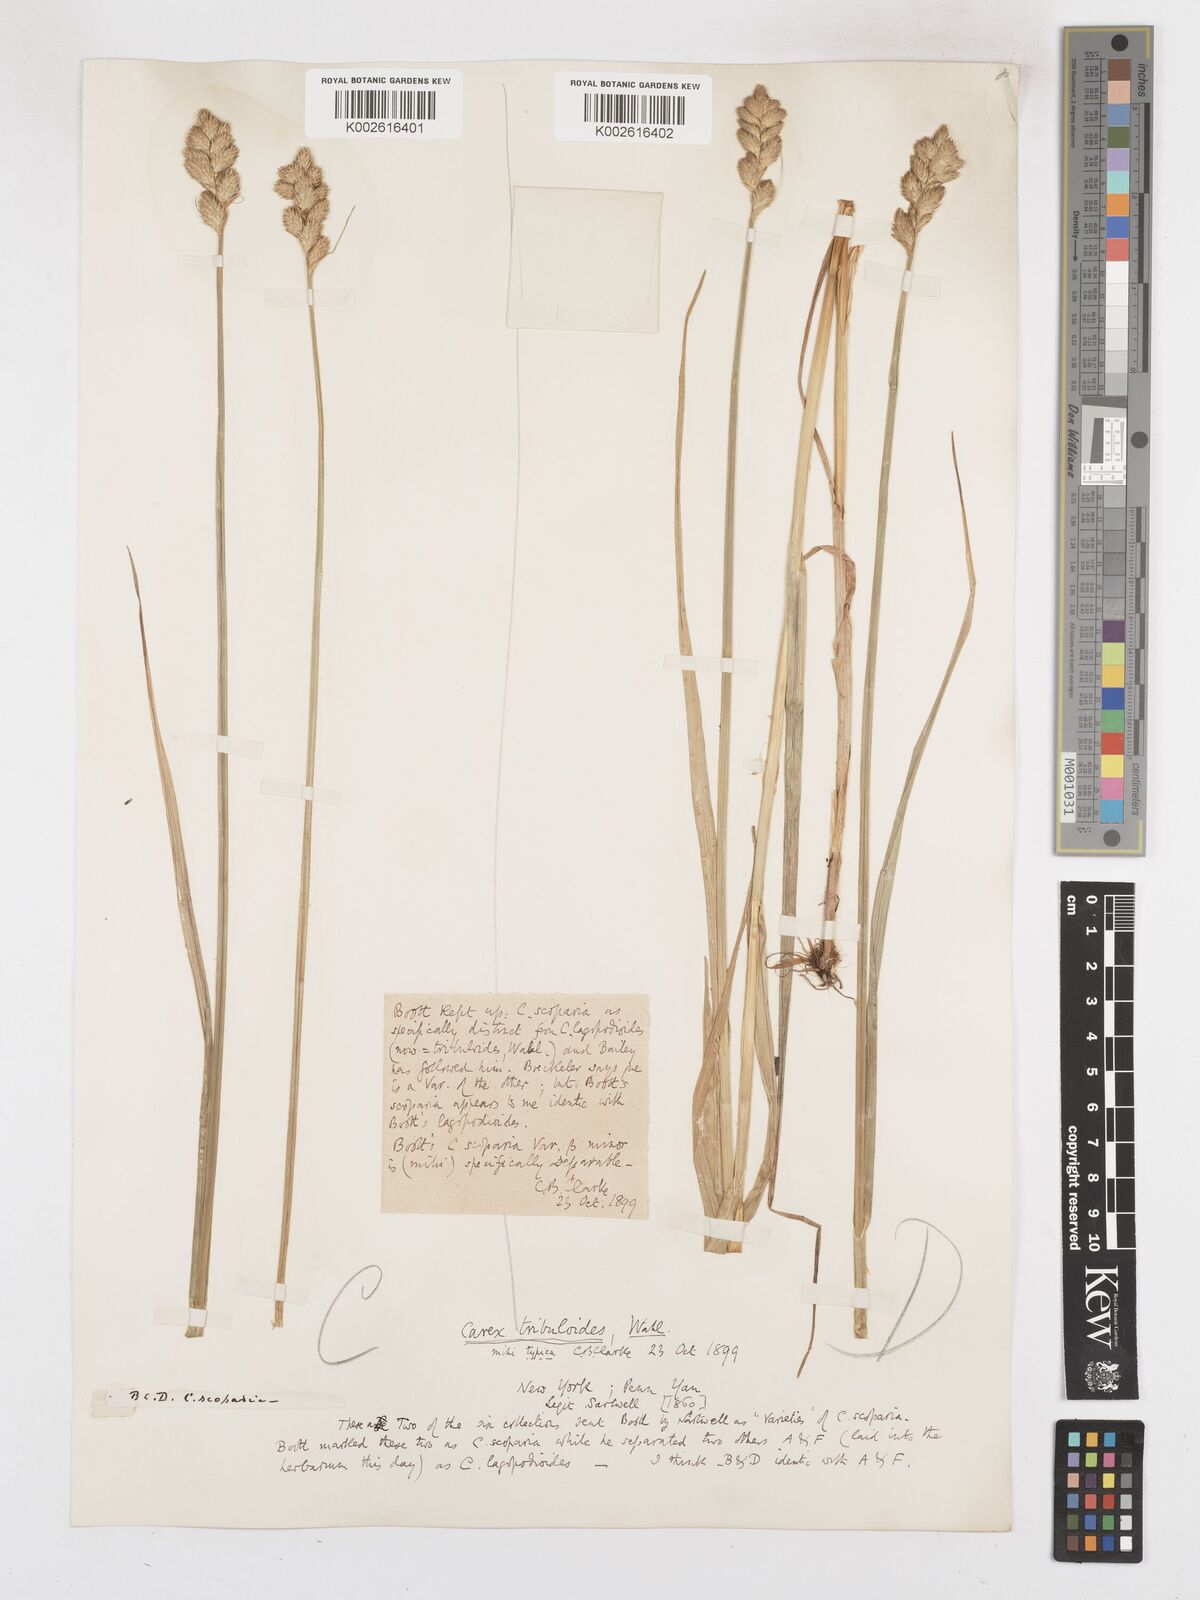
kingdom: Plantae
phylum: Tracheophyta
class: Liliopsida
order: Poales
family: Cyperaceae
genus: Carex
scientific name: Carex tribuloides
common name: Blunt broom sedge
